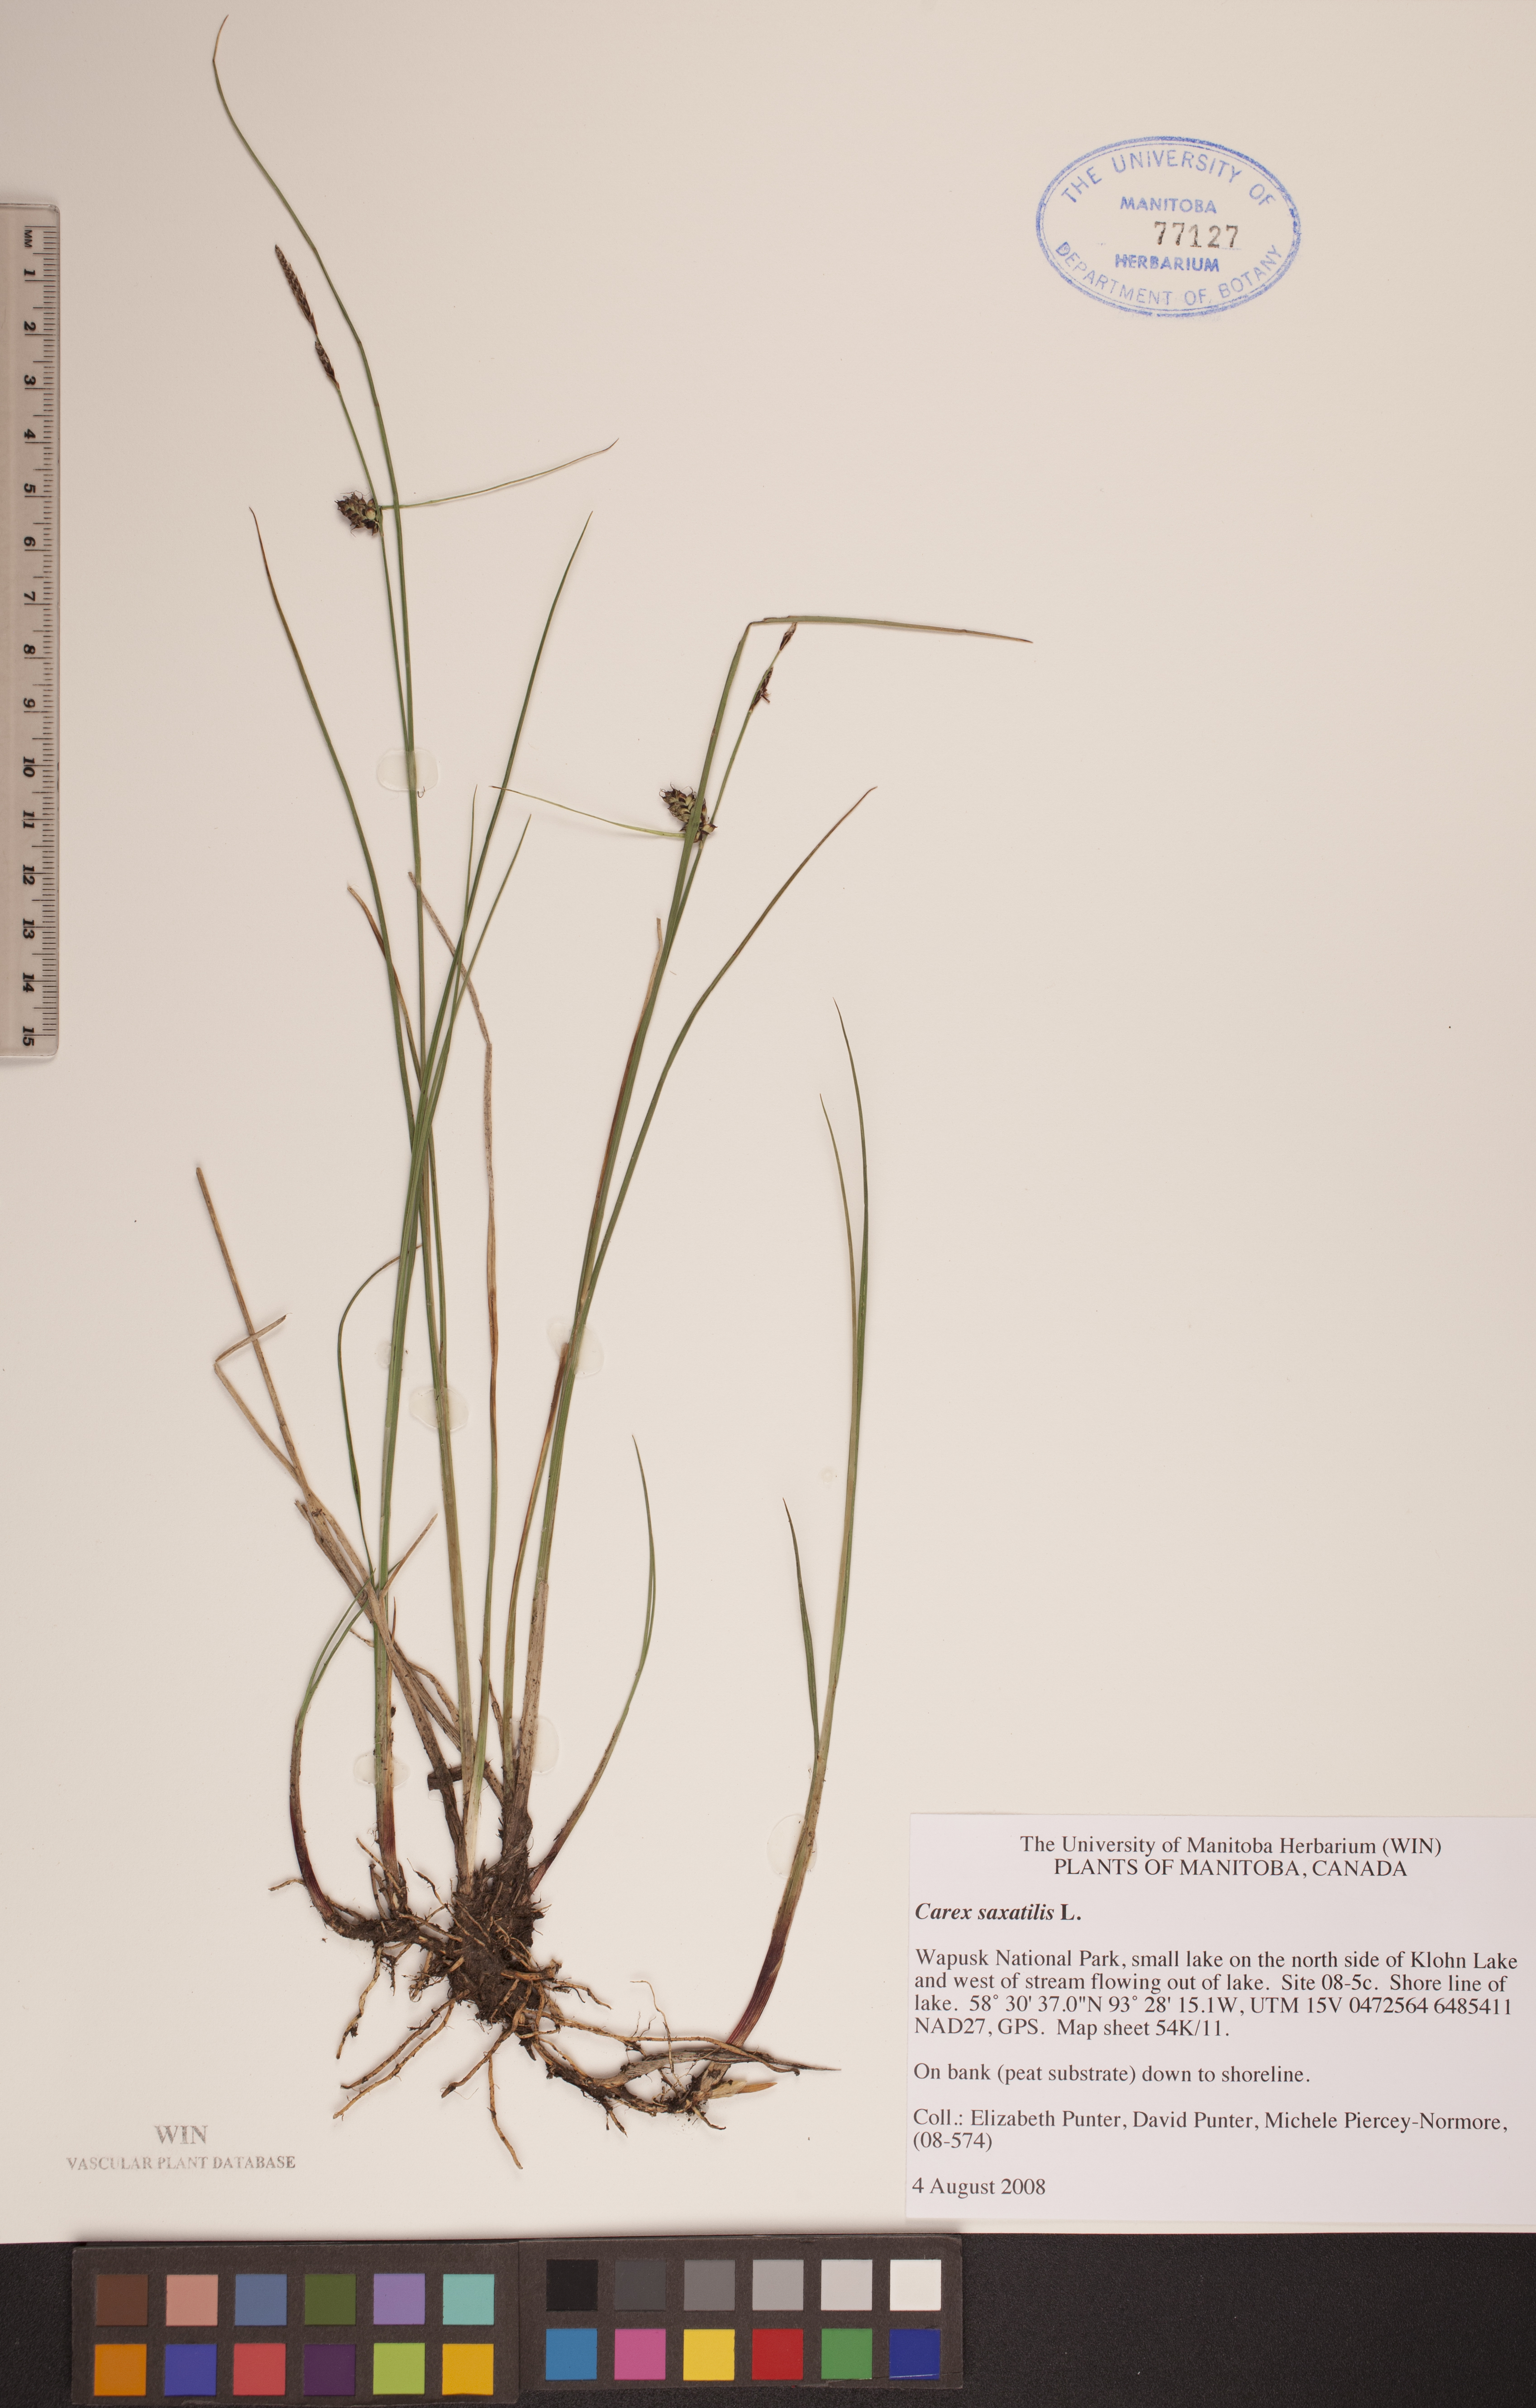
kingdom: Plantae
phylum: Tracheophyta
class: Liliopsida
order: Poales
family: Cyperaceae
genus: Carex
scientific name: Carex saxatilis
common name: Russet sedge
